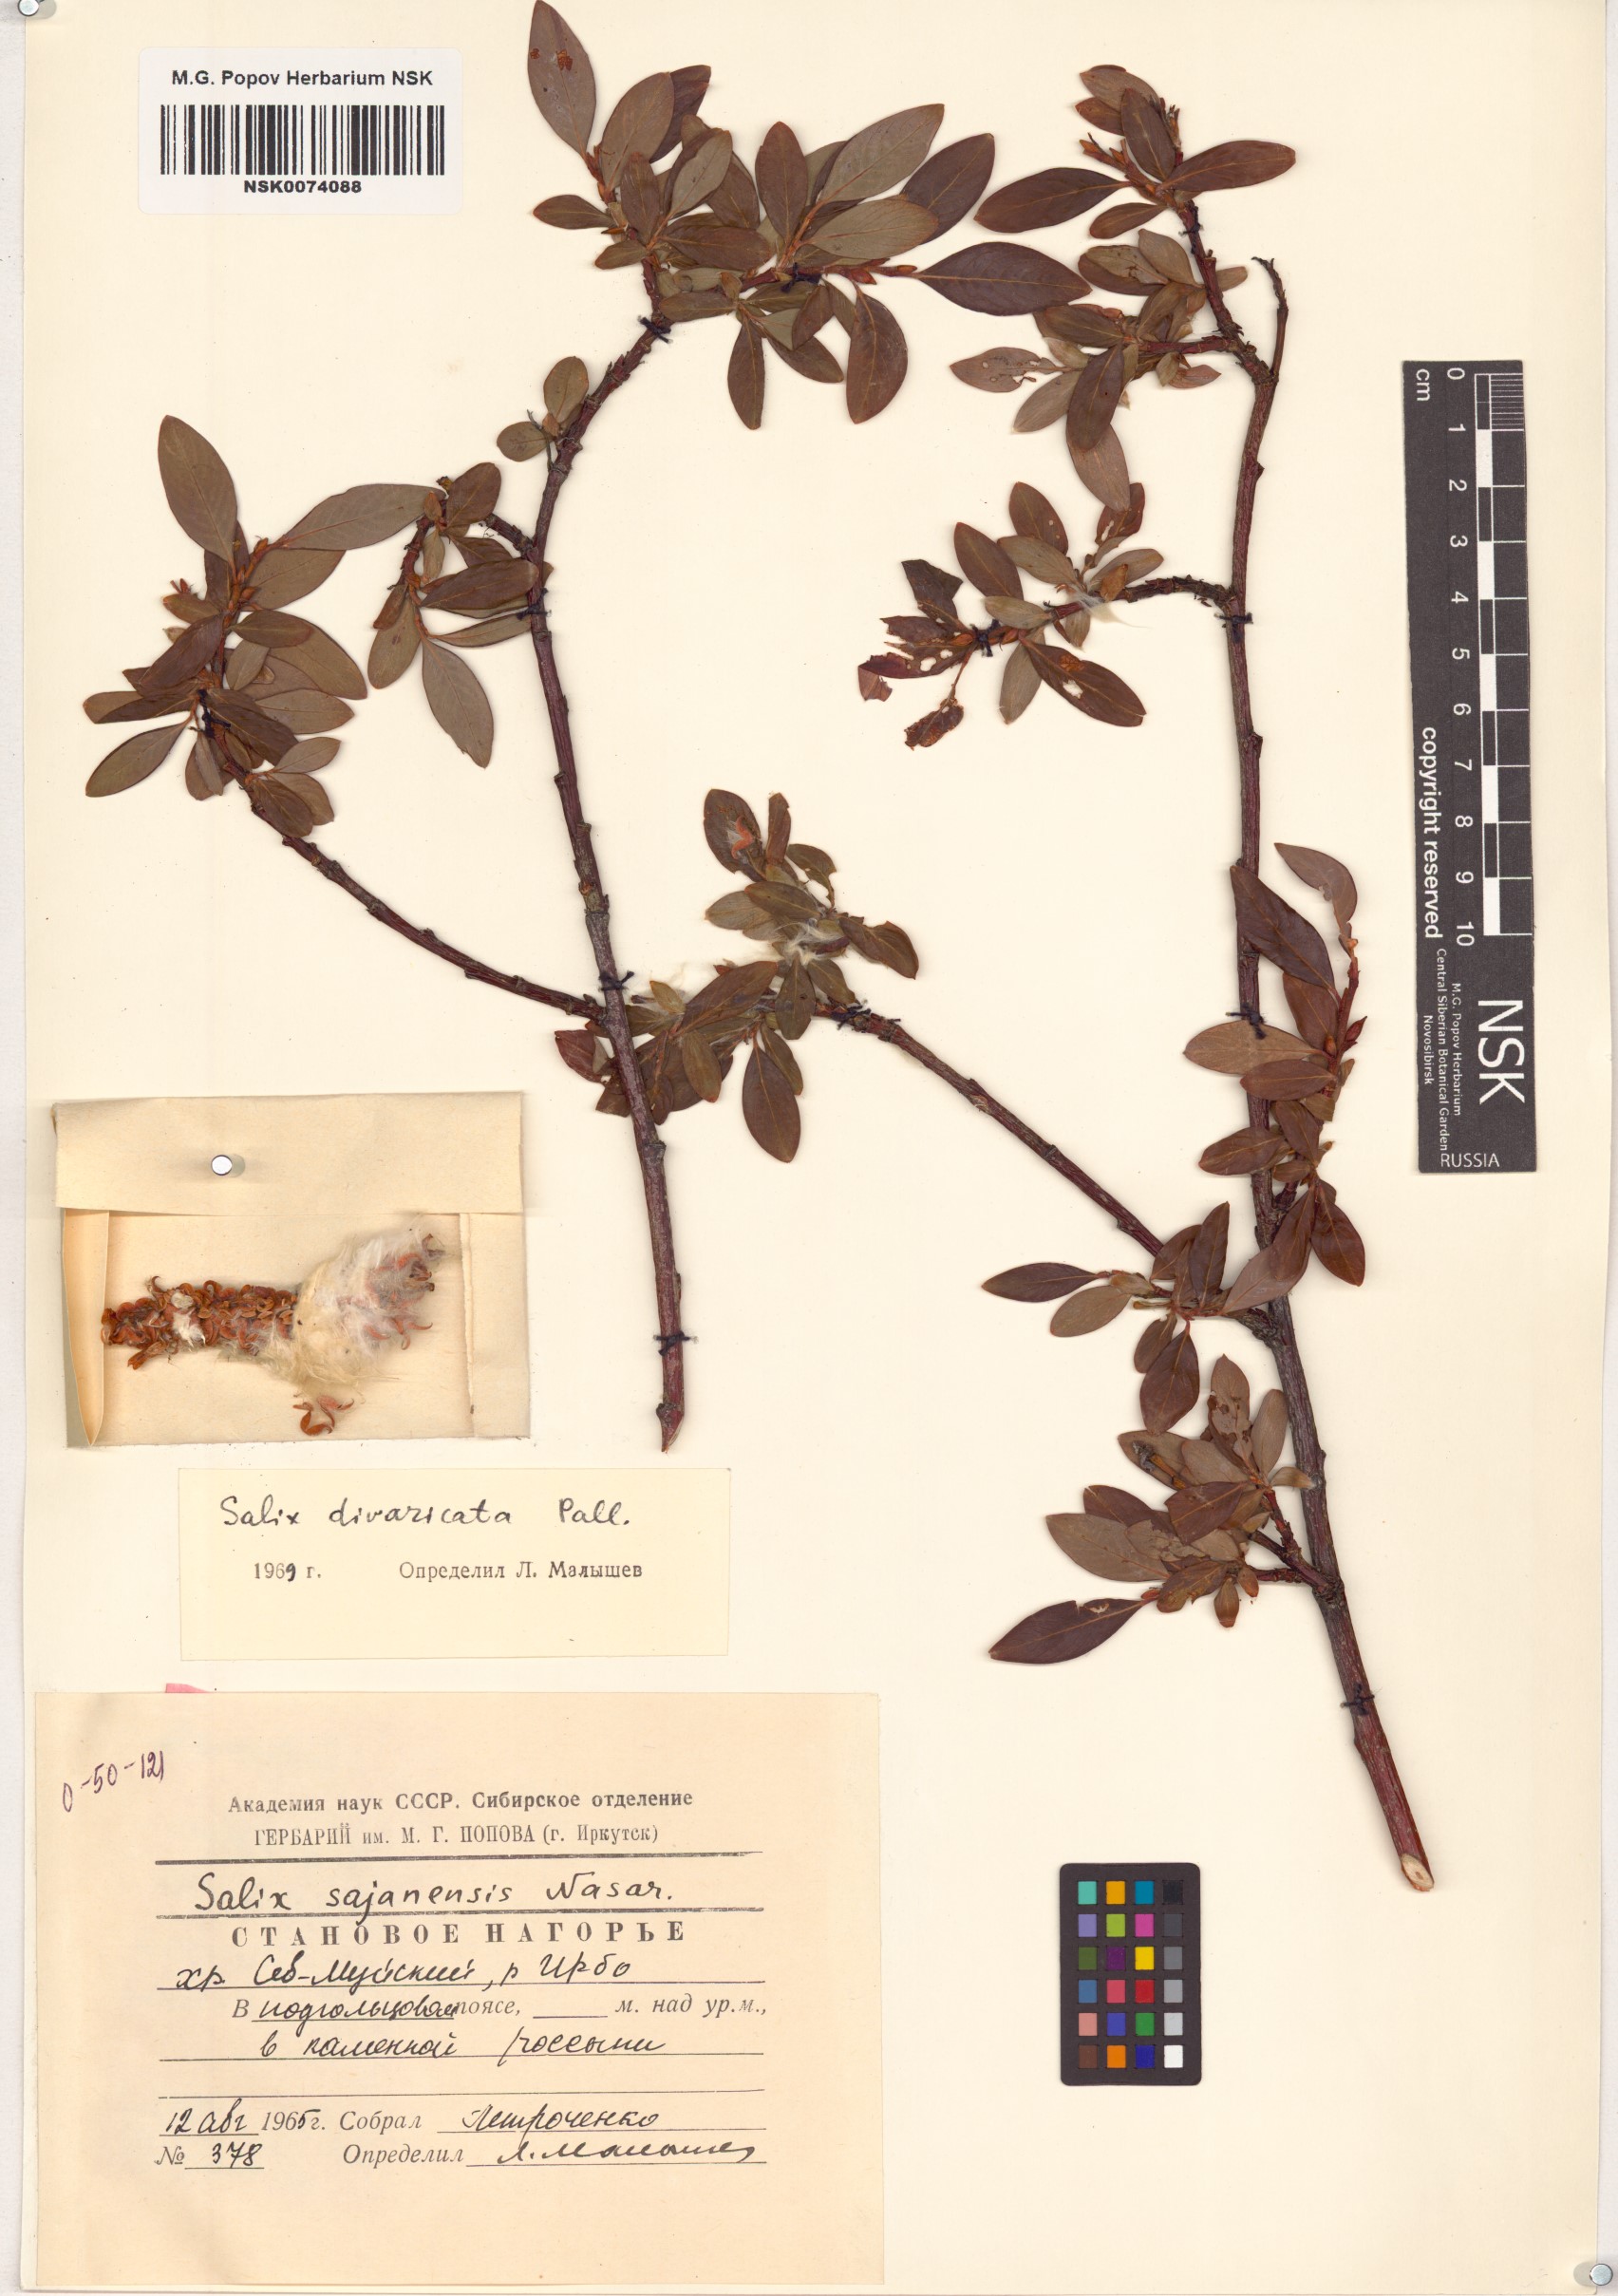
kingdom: Plantae
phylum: Tracheophyta
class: Magnoliopsida
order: Malpighiales
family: Salicaceae
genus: Salix
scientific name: Salix divaricata
